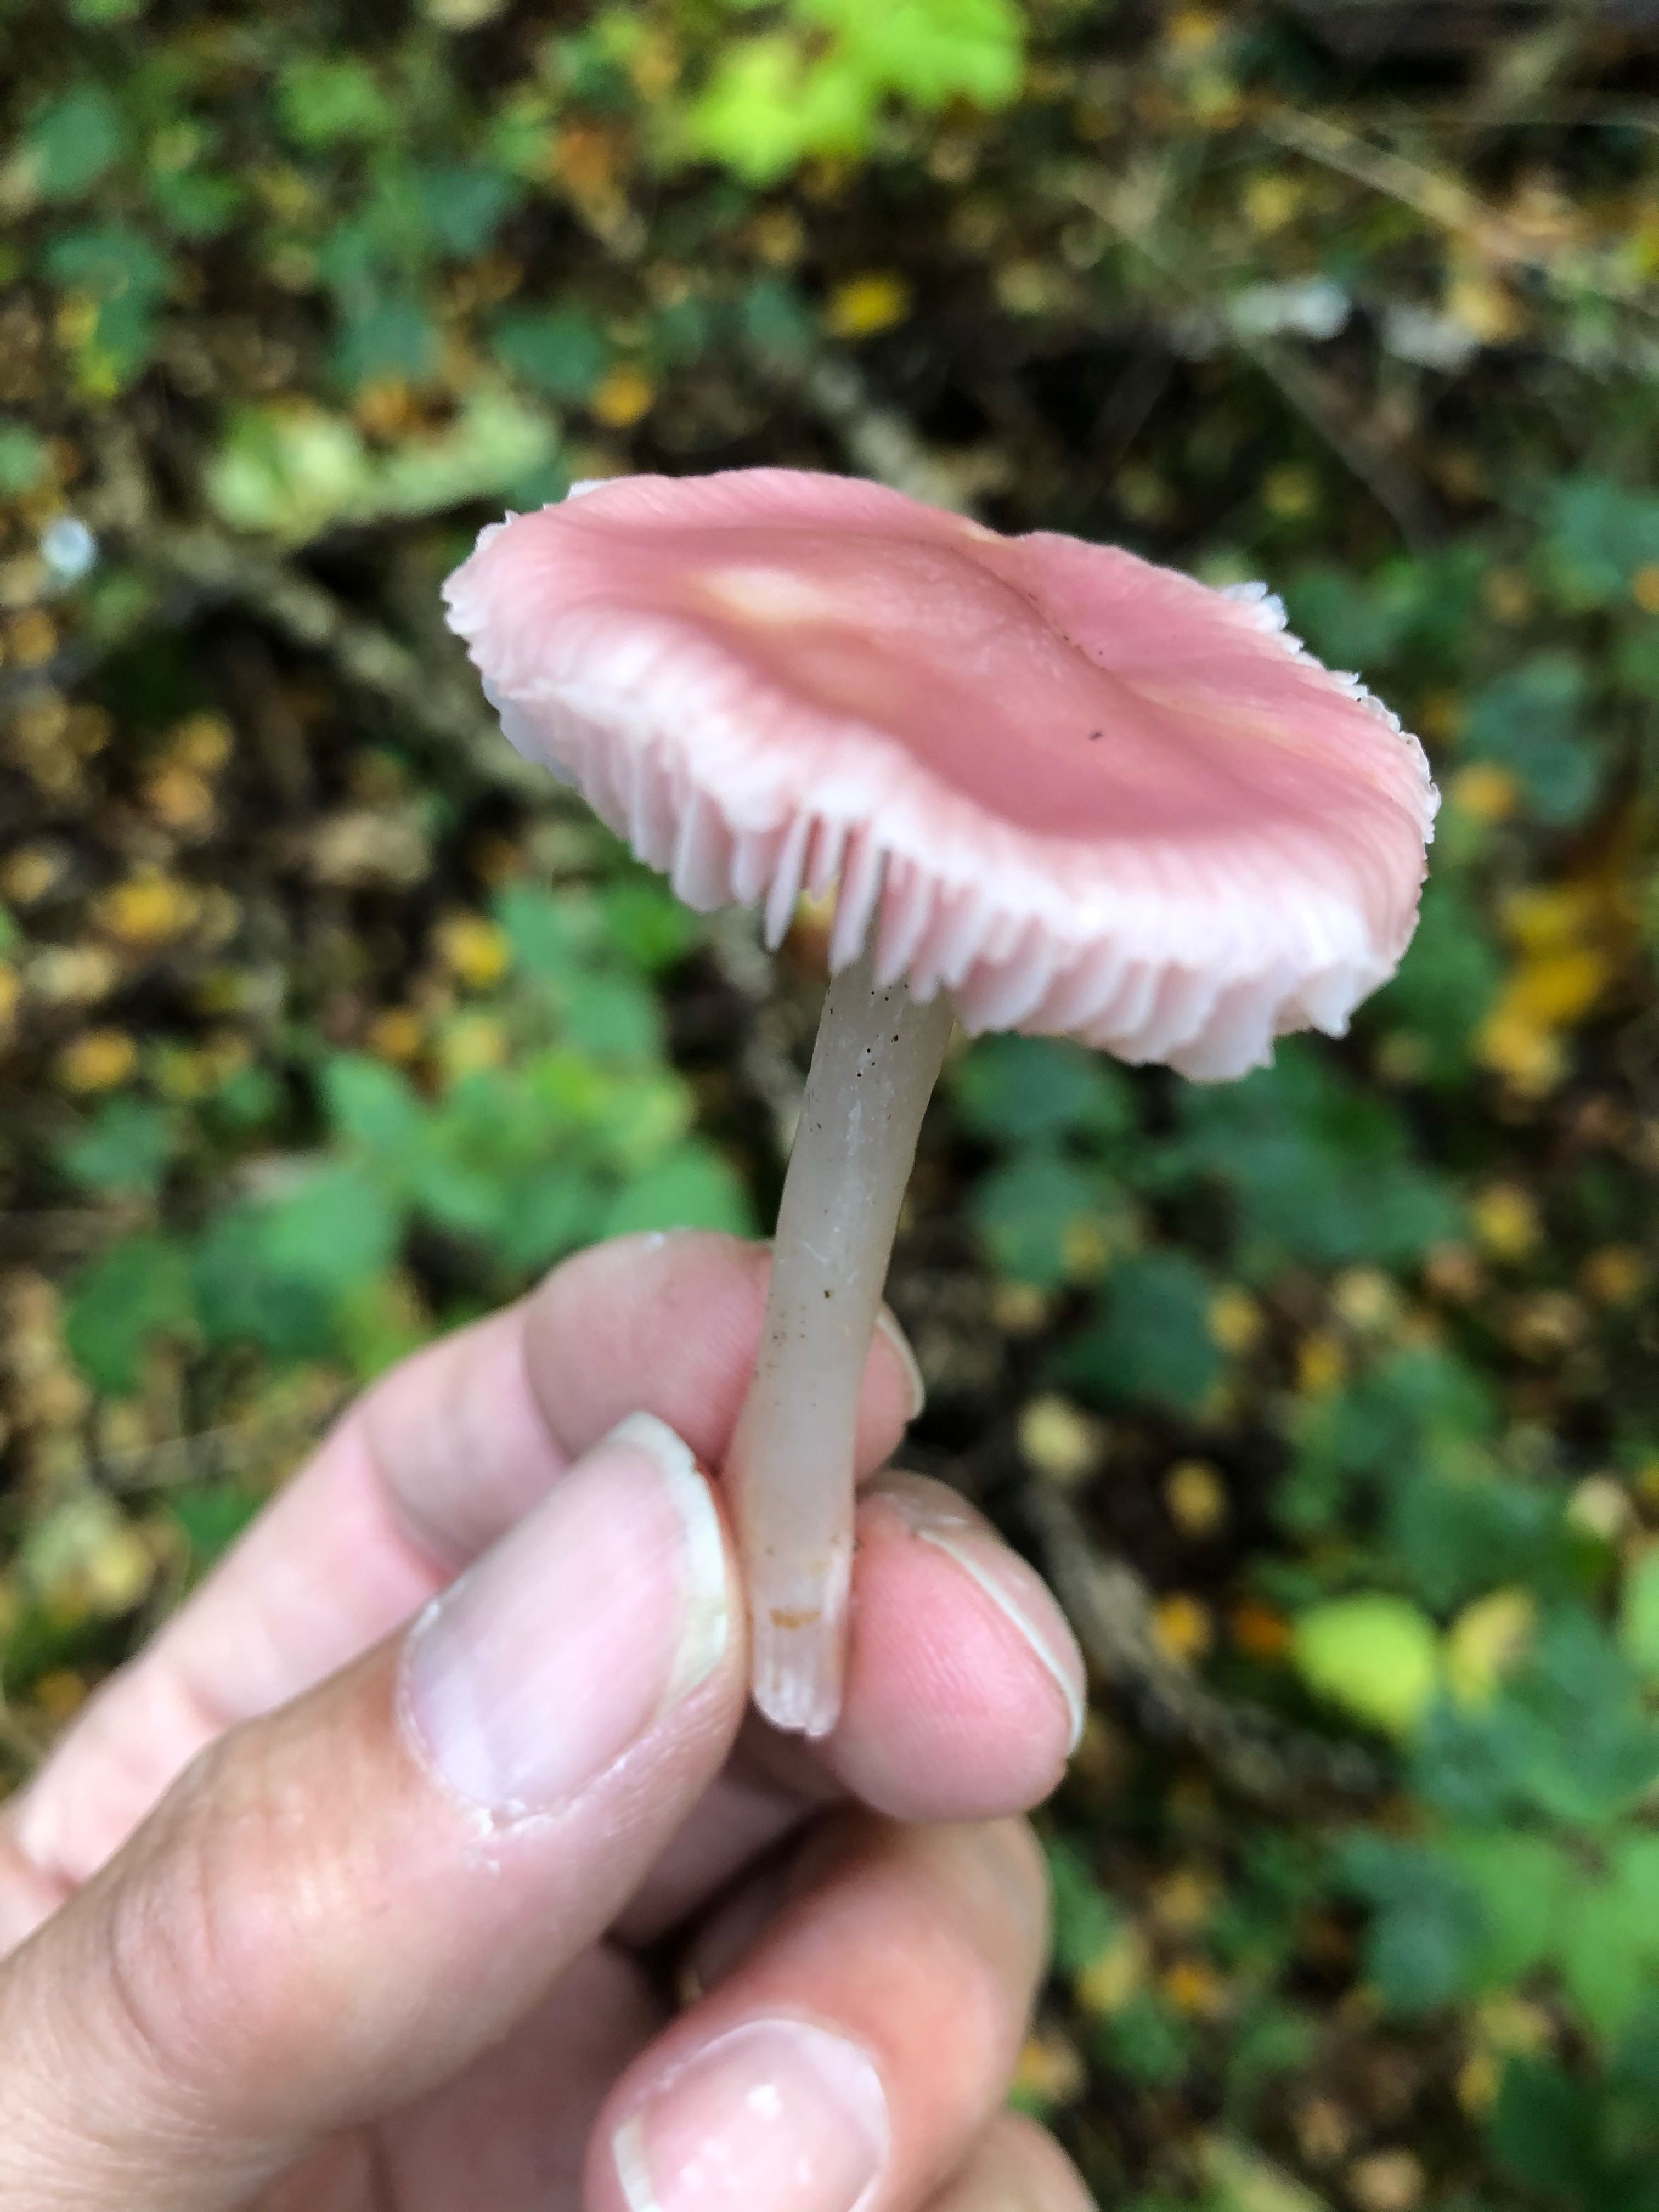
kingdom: Fungi
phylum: Basidiomycota
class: Agaricomycetes
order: Agaricales
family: Mycenaceae
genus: Mycena
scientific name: Mycena rosea
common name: rosa huesvamp
